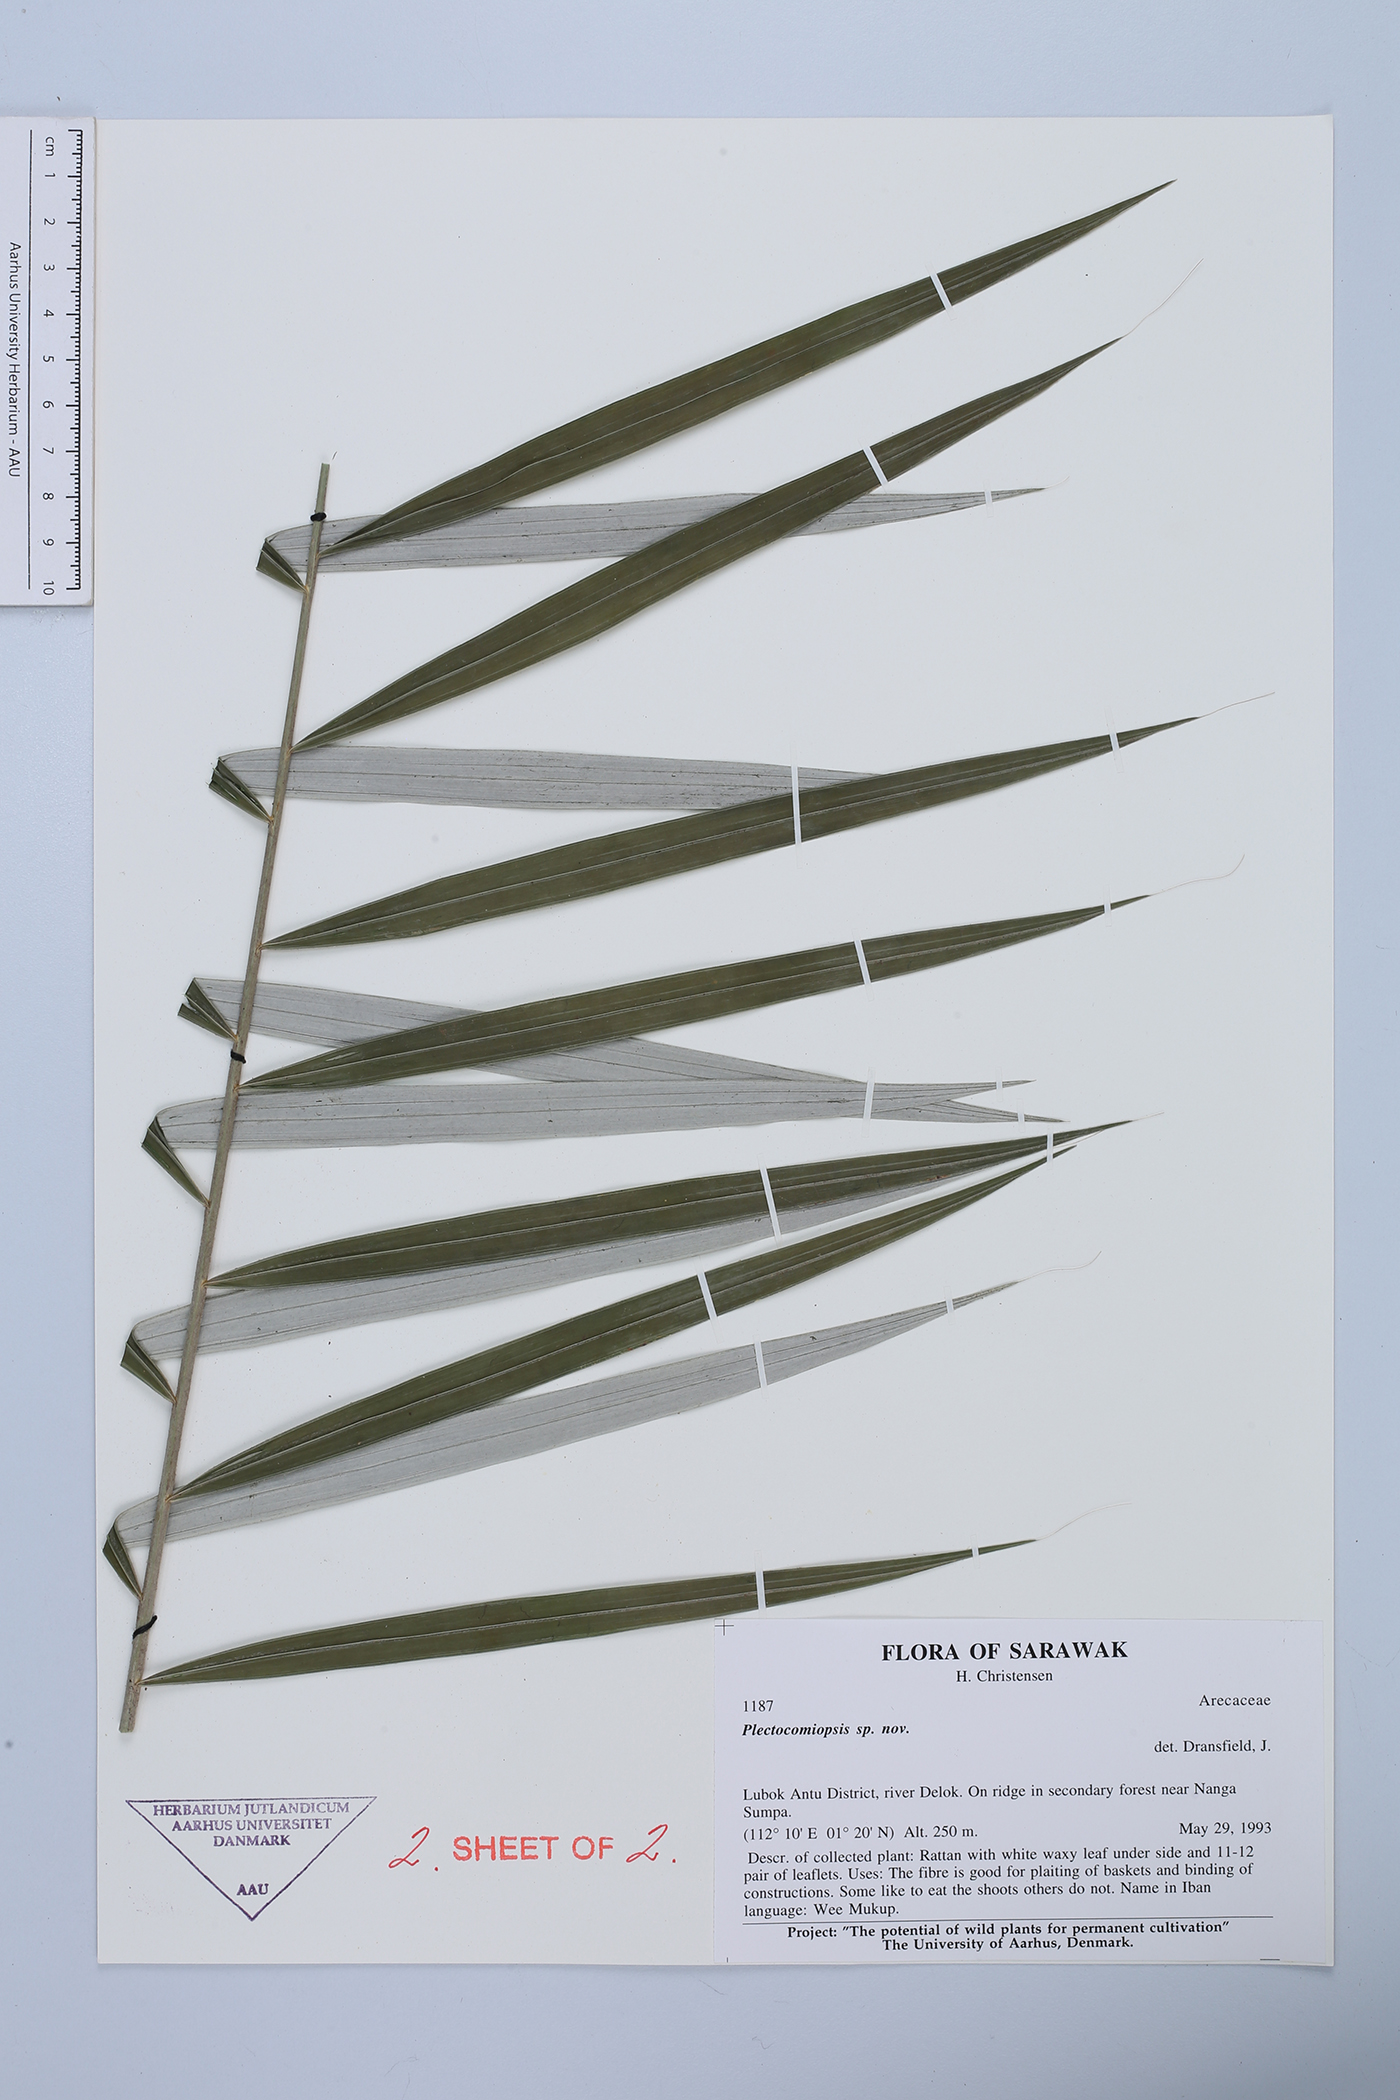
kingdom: Plantae
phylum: Tracheophyta
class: Liliopsida
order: Arecales
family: Arecaceae
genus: Plectocomiopsis
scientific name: Plectocomiopsis
